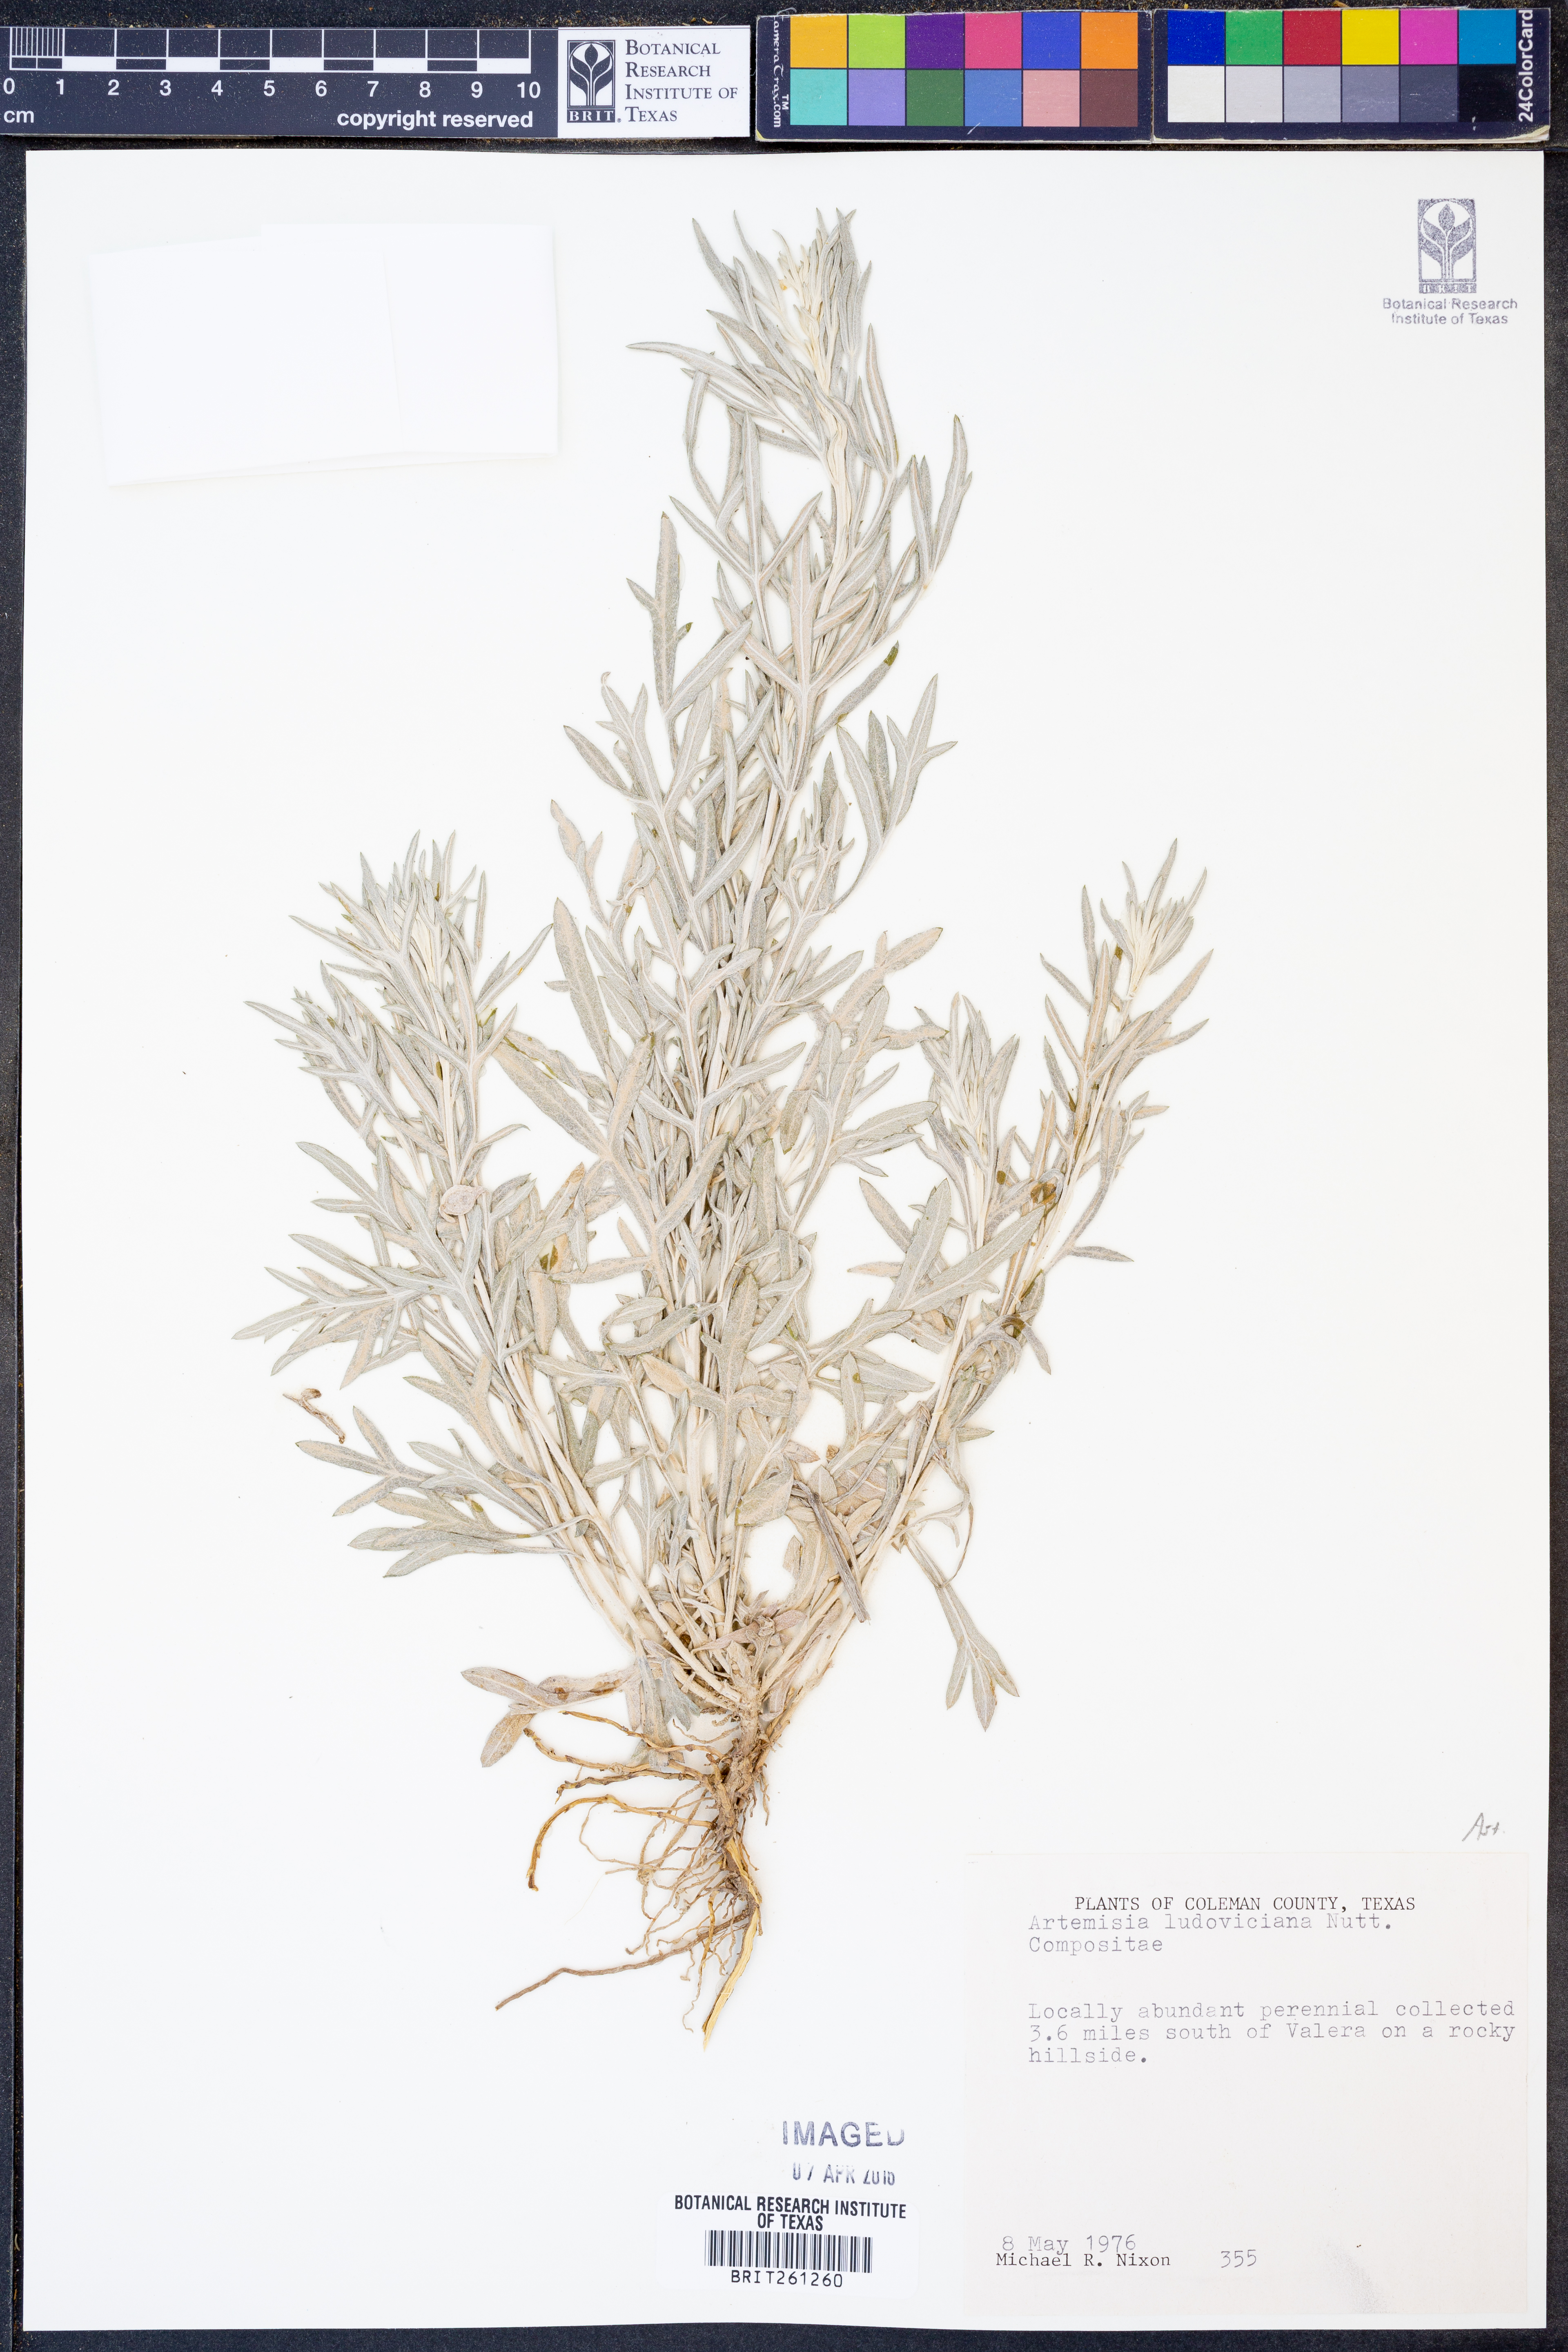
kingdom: Plantae
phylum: Tracheophyta
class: Magnoliopsida
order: Asterales
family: Asteraceae
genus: Artemisia
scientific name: Artemisia ludoviciana
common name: Western mugwort
